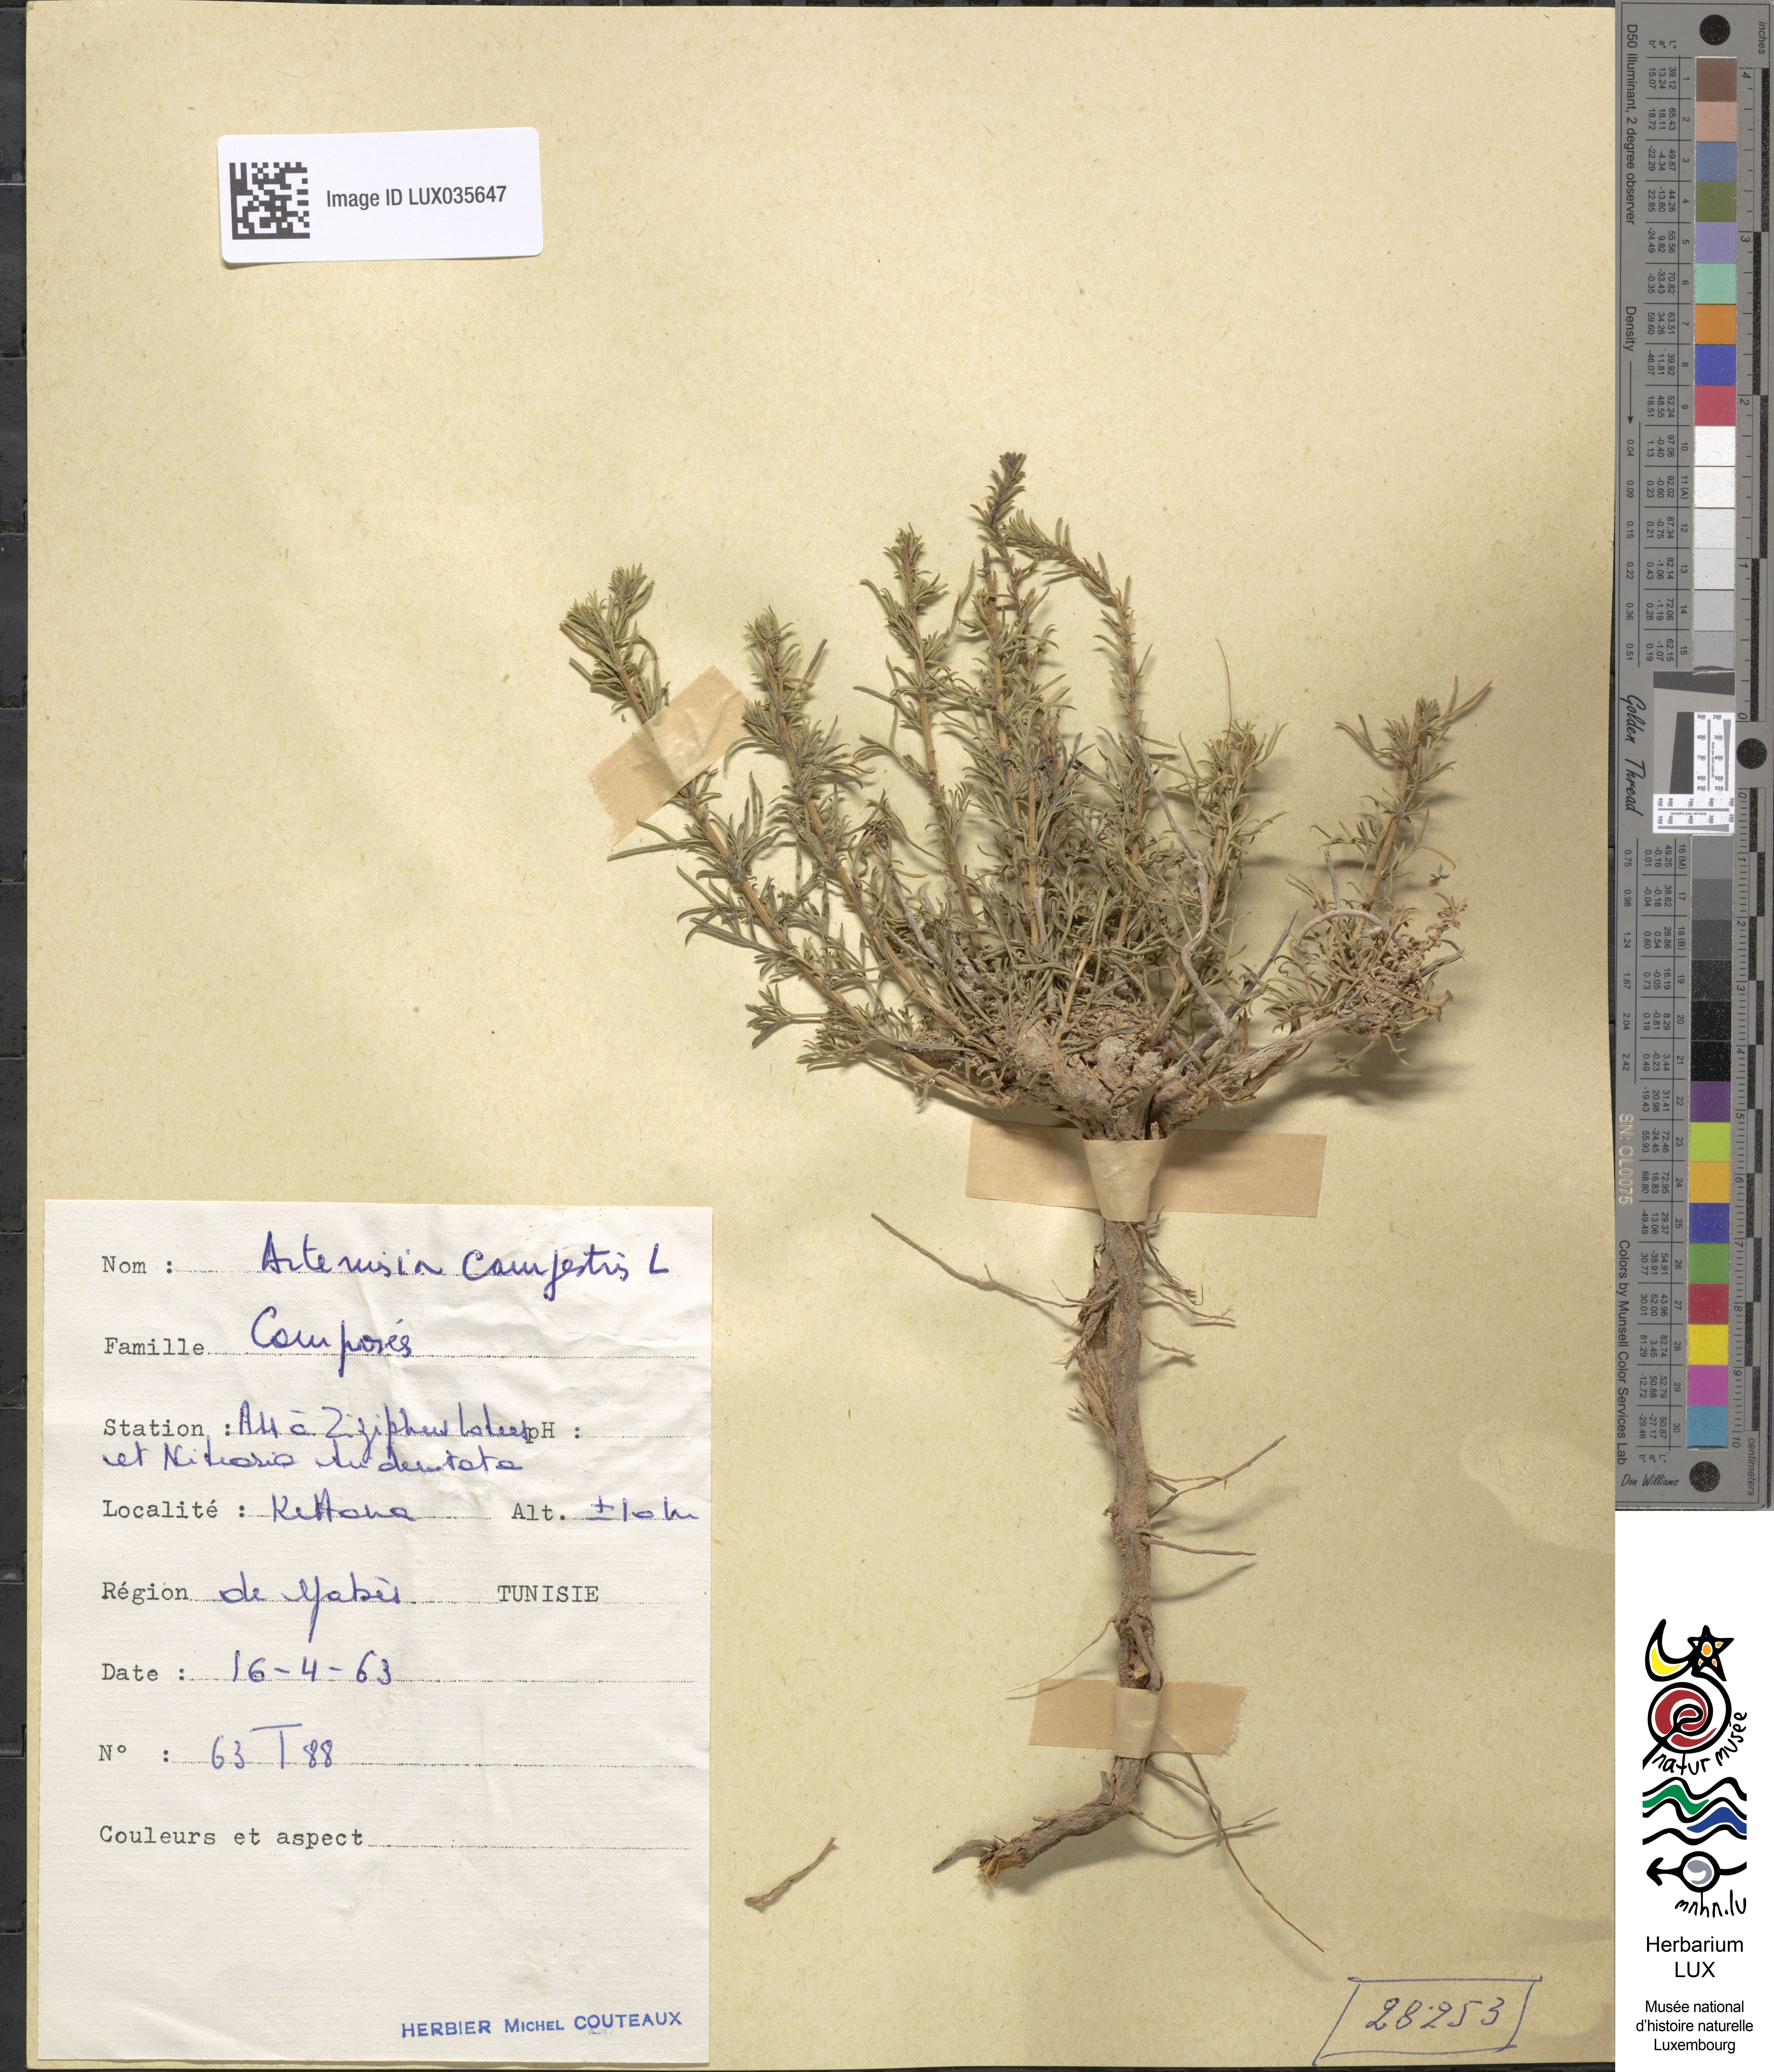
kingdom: Plantae
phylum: Tracheophyta
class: Magnoliopsida
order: Asterales
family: Asteraceae
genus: Artemisia
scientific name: Artemisia campestris
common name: Field wormwood
